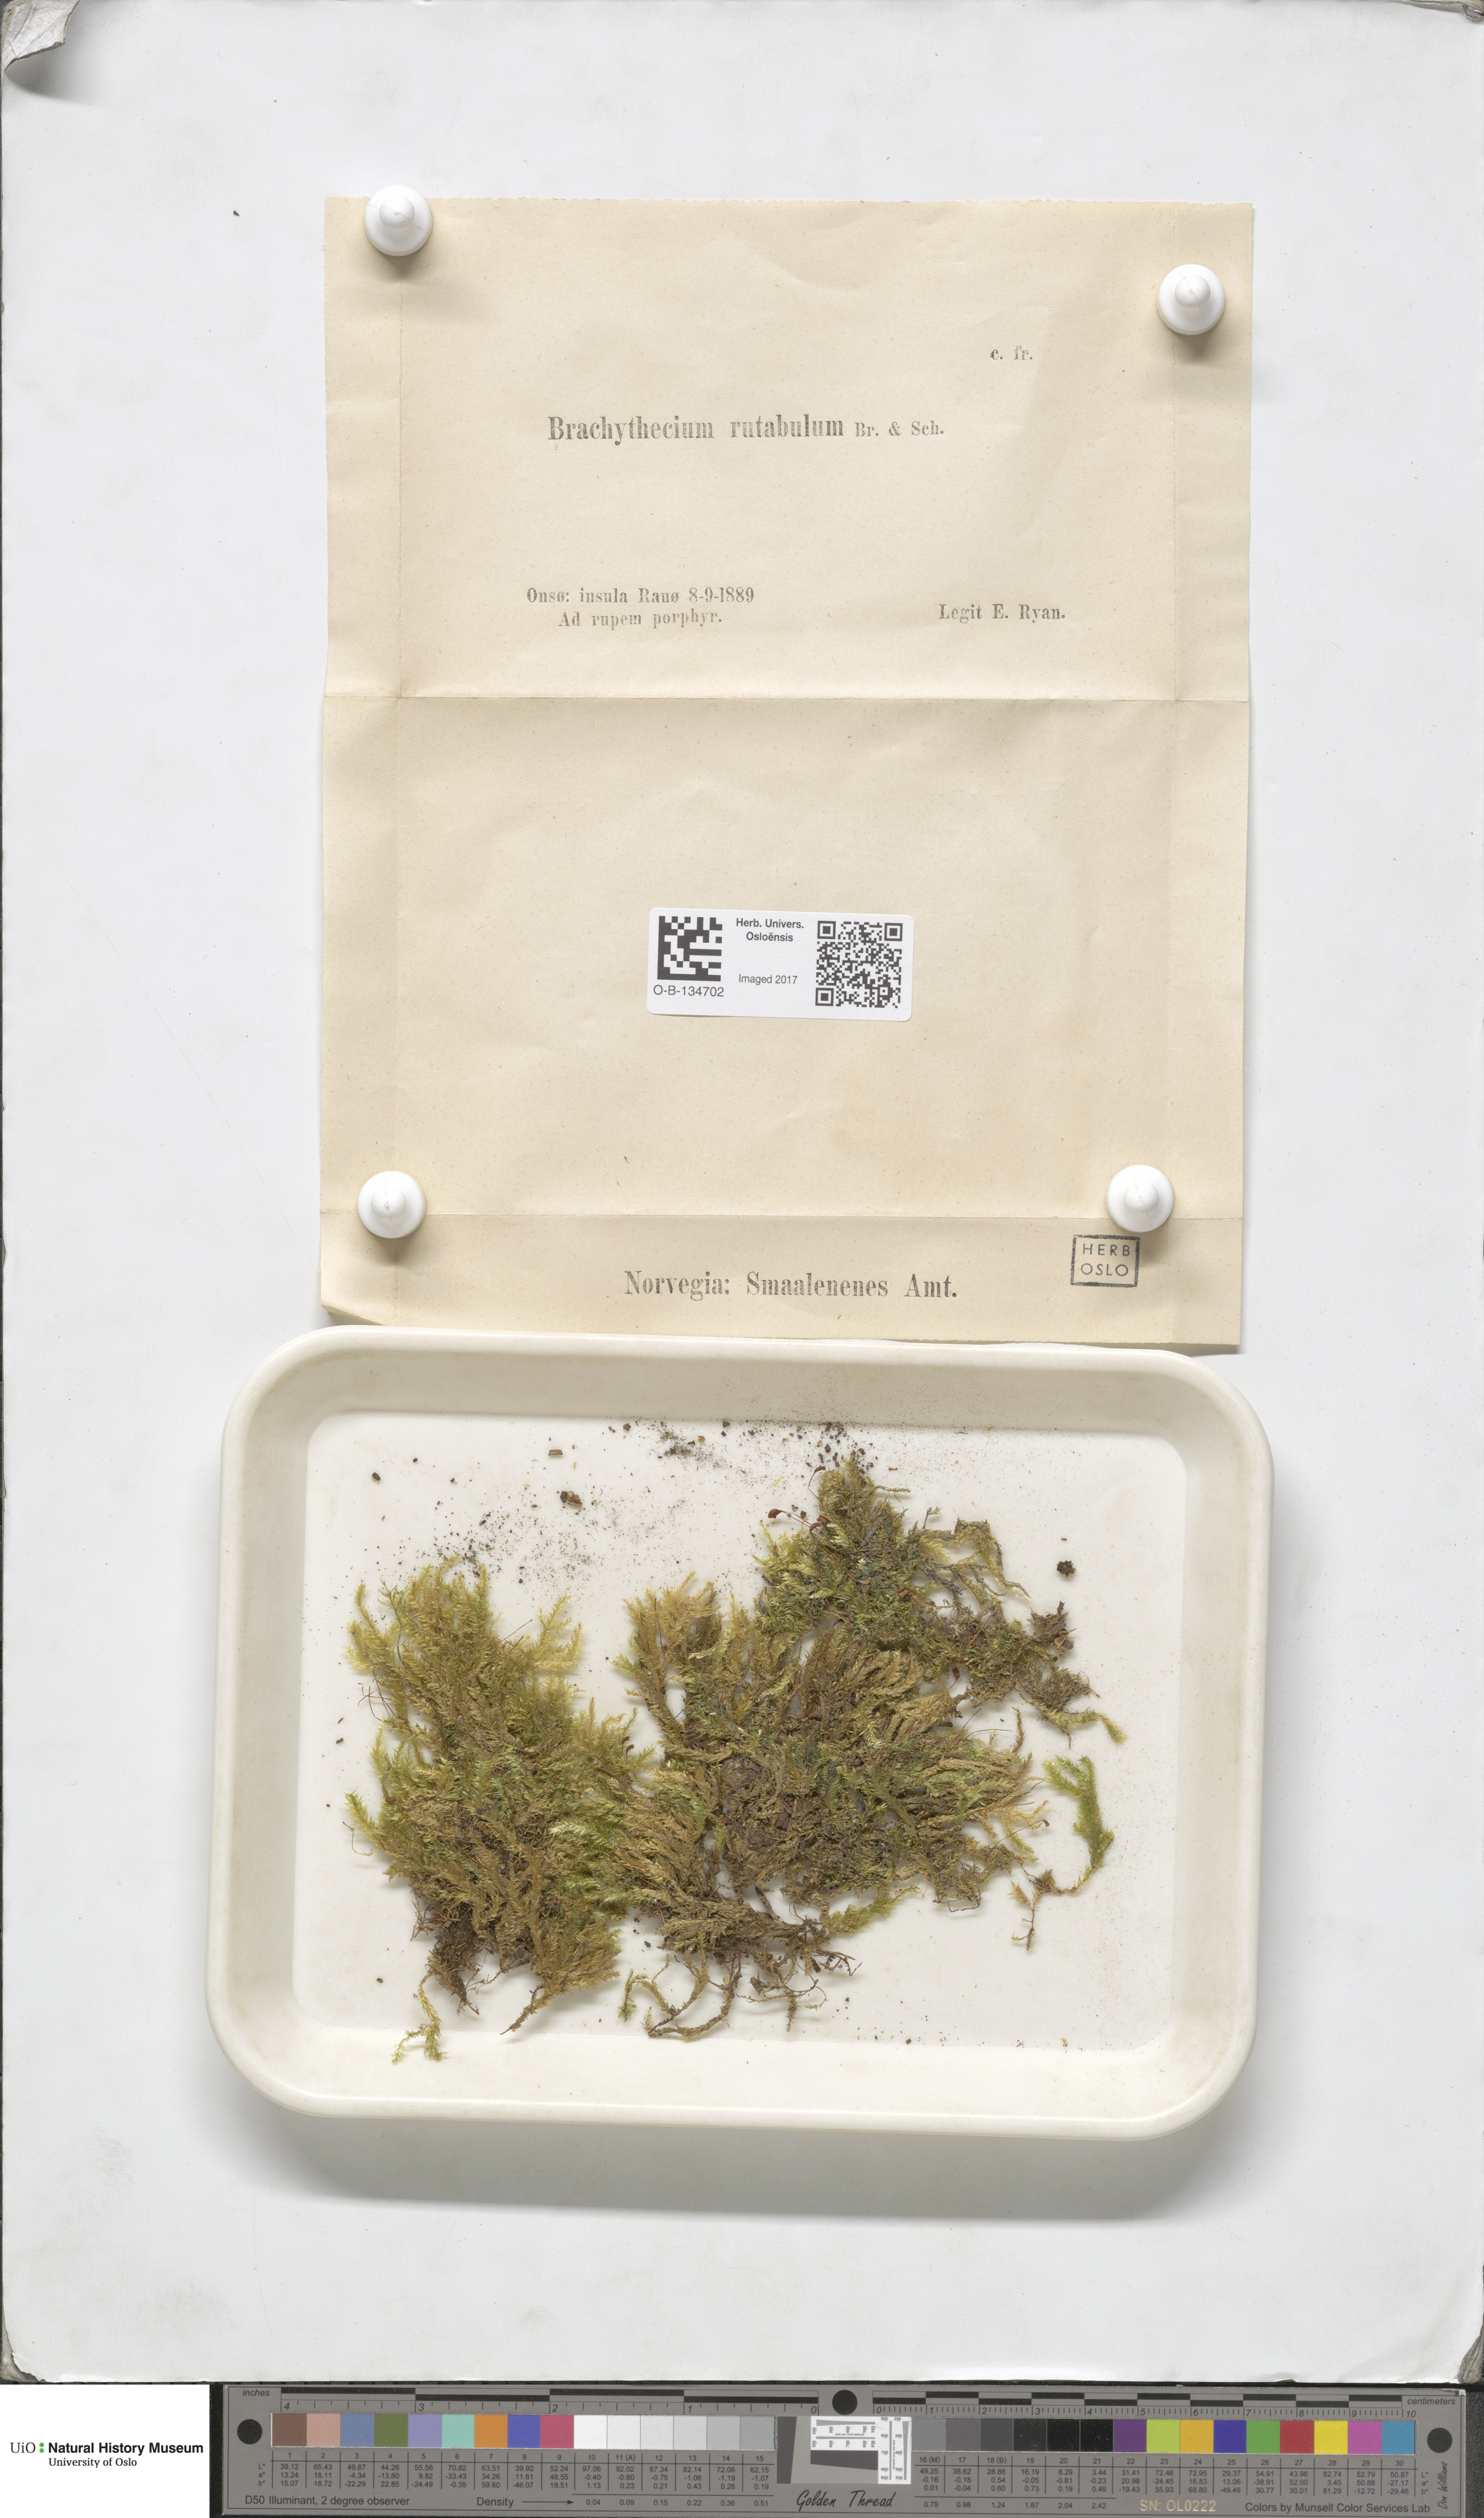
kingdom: Plantae
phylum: Bryophyta
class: Bryopsida
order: Hypnales
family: Brachytheciaceae
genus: Brachythecium
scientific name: Brachythecium rutabulum
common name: Rough-stalked feather-moss
